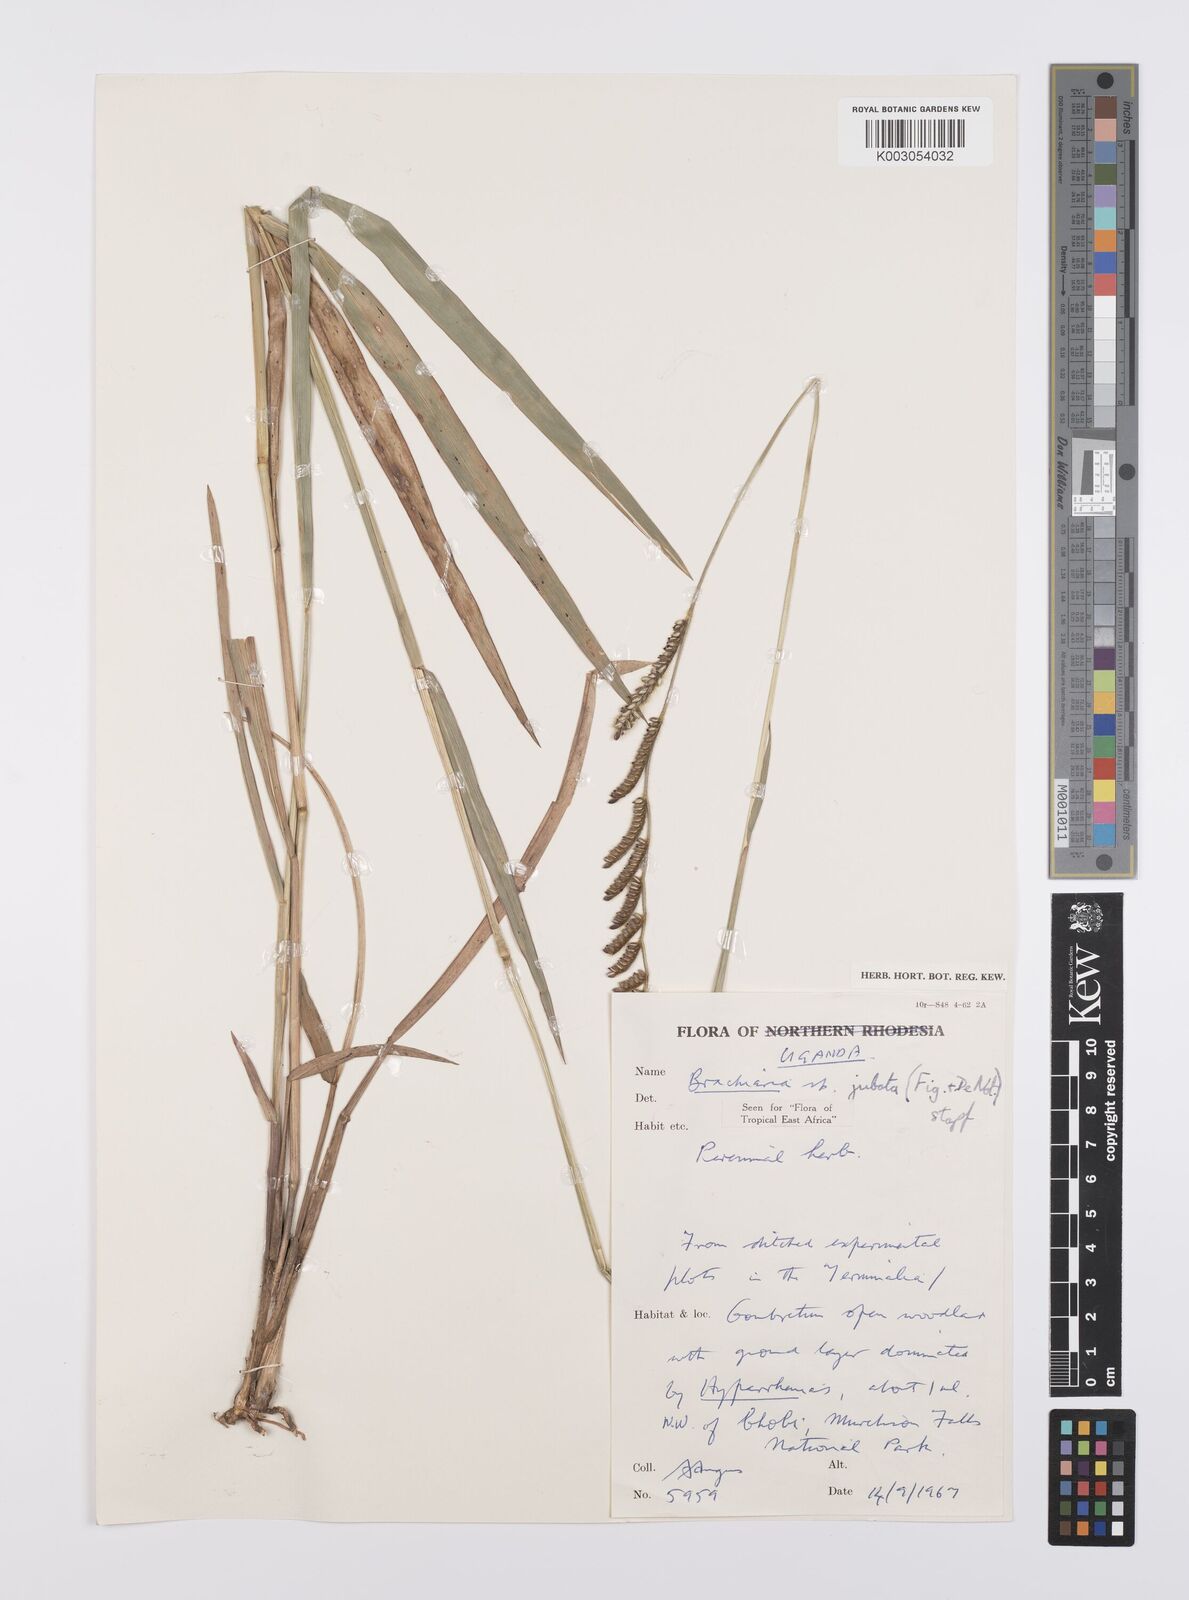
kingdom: Plantae
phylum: Tracheophyta
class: Liliopsida
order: Poales
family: Poaceae
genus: Urochloa
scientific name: Urochloa jubata
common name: Buffalograss
